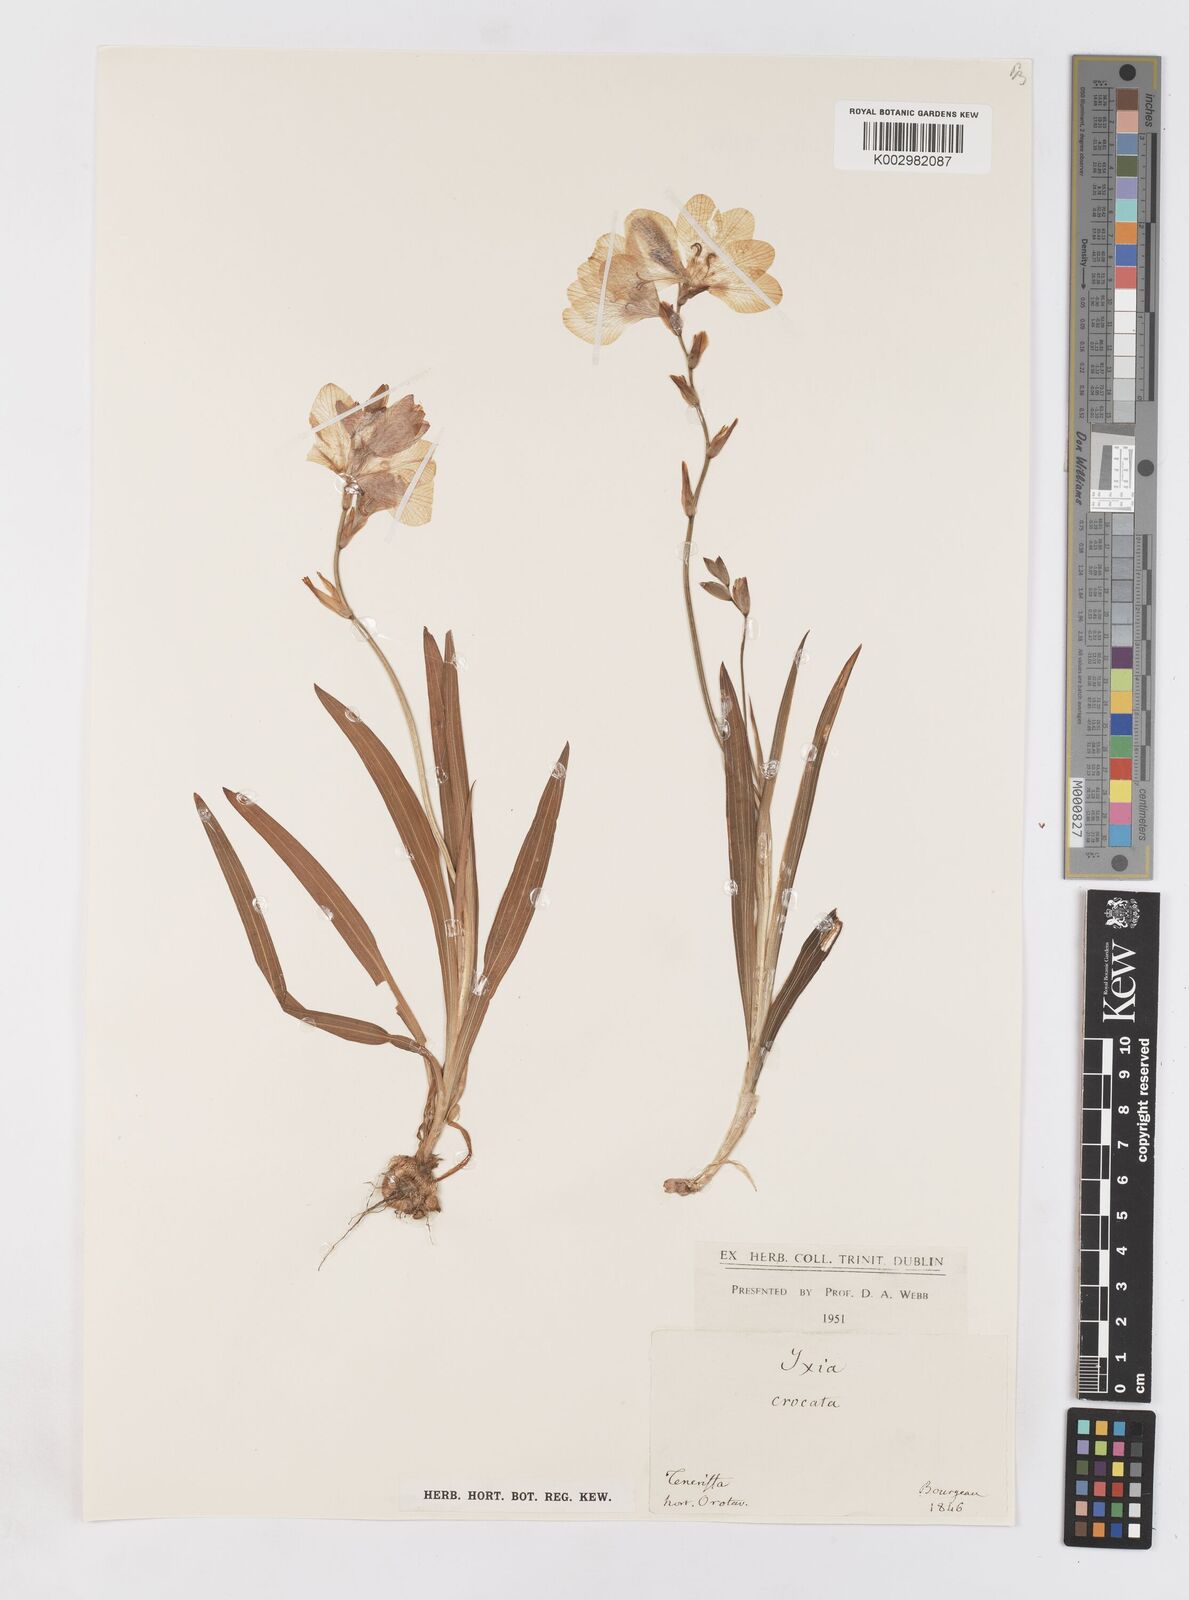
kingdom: Plantae
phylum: Tracheophyta
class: Liliopsida
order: Asparagales
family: Iridaceae
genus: Tritonia
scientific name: Tritonia crocata
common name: Flame-freesia
